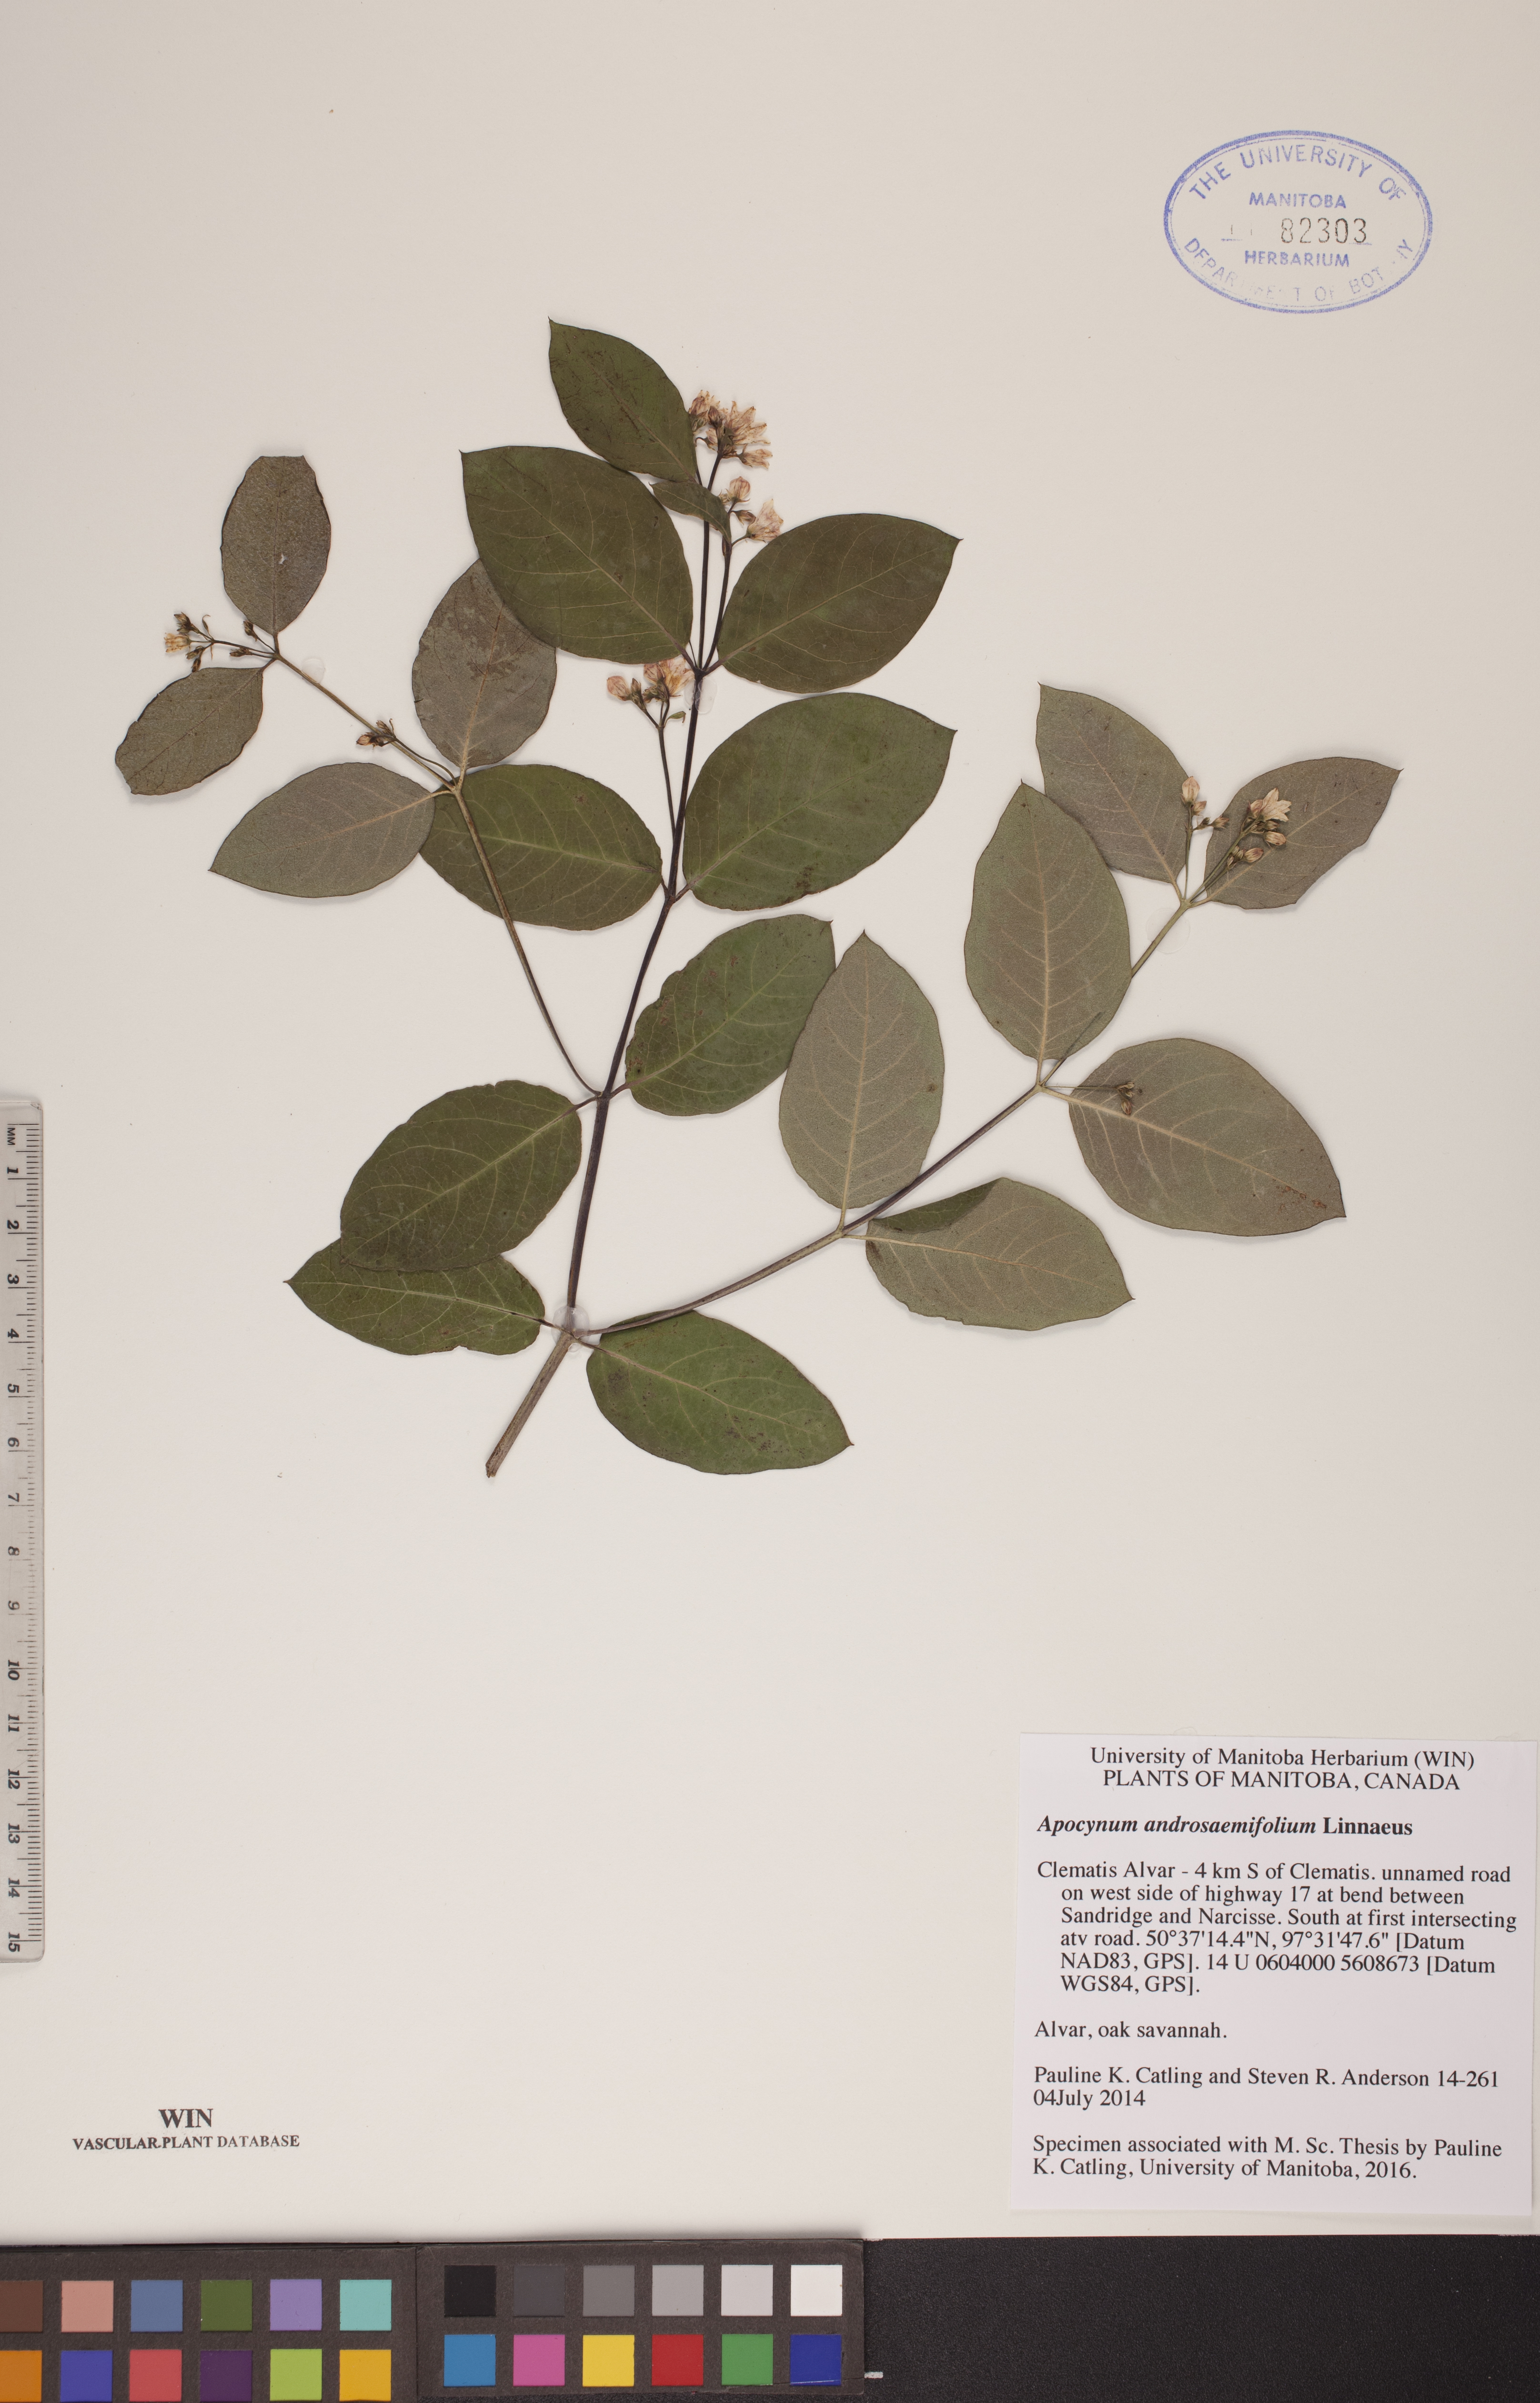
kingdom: Plantae
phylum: Tracheophyta
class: Magnoliopsida
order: Gentianales
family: Apocynaceae
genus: Apocynum
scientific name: Apocynum androsaemifolium
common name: Spreading dogbane
